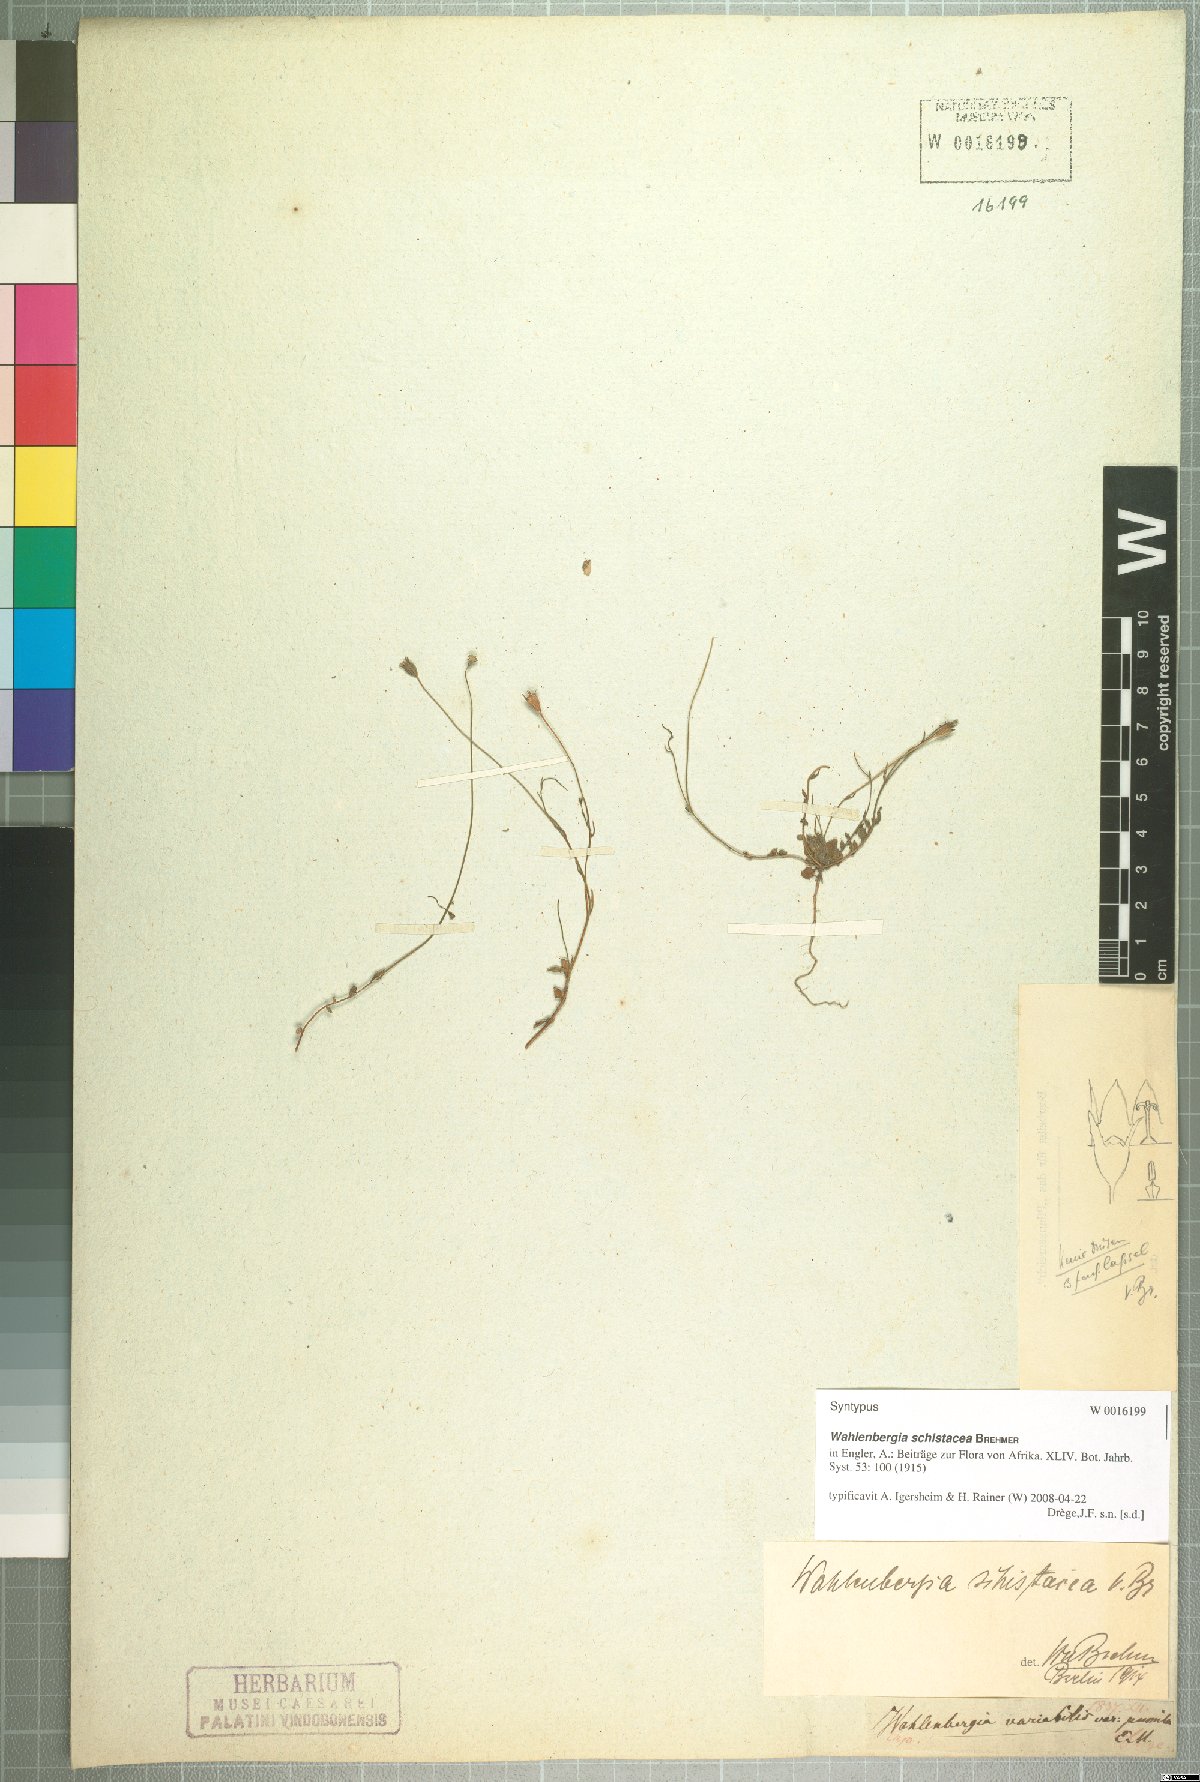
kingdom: Plantae
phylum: Tracheophyta
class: Magnoliopsida
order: Asterales
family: Campanulaceae
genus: Wahlenbergia
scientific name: Wahlenbergia schistacea
